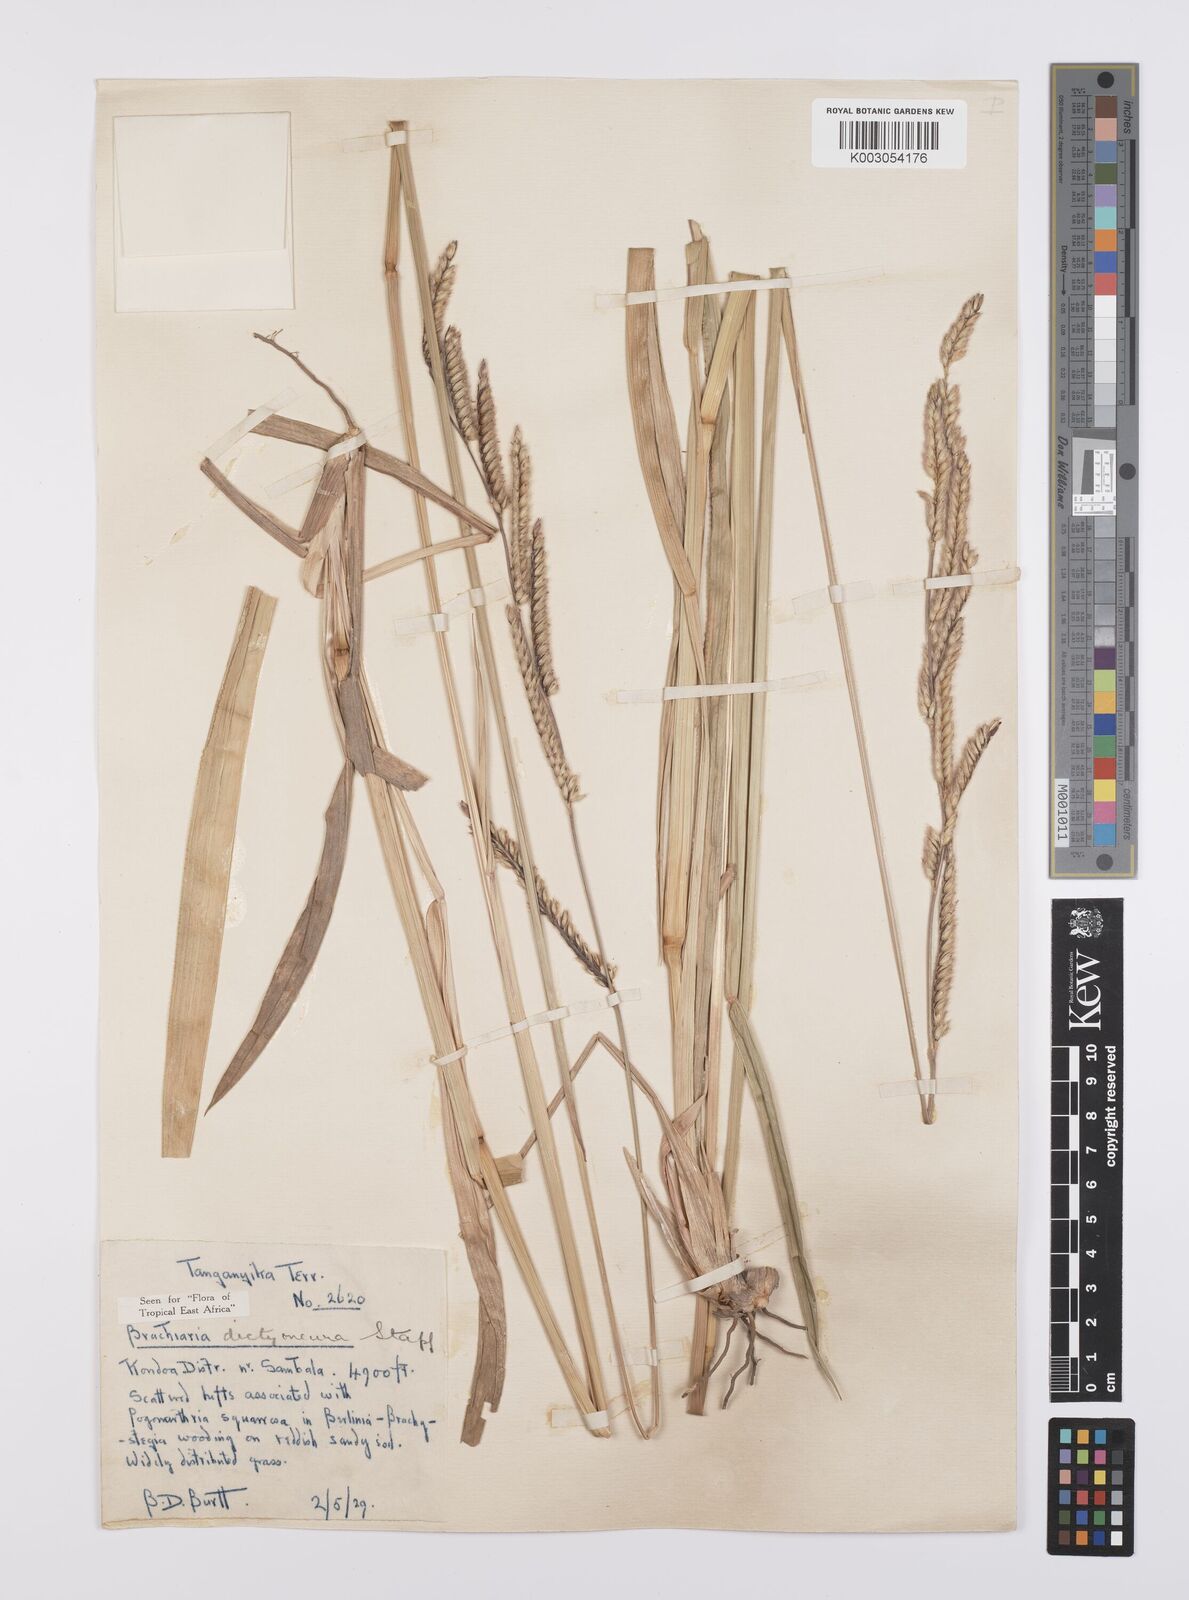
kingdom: Plantae
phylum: Tracheophyta
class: Liliopsida
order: Poales
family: Poaceae
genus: Urochloa
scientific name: Urochloa dictyoneura
